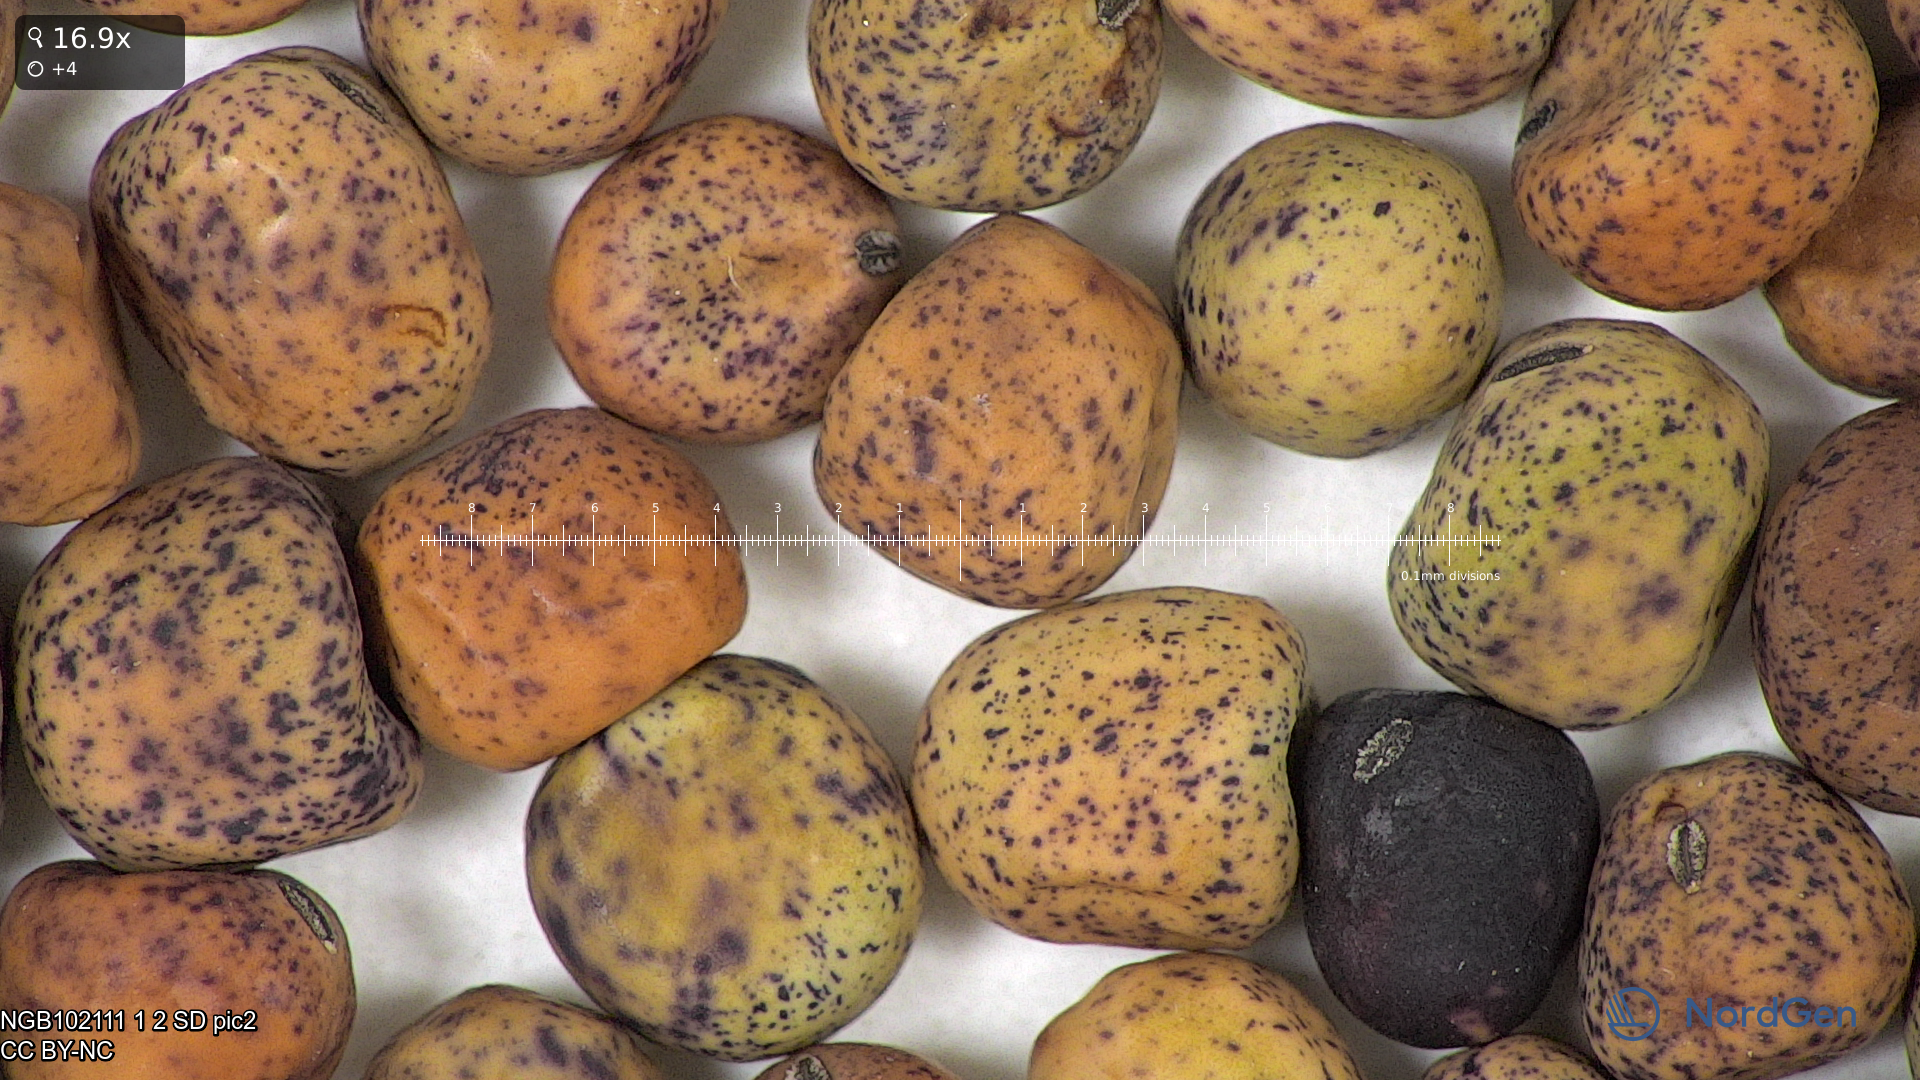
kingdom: Plantae
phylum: Tracheophyta
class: Magnoliopsida
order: Fabales
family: Fabaceae
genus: Lathyrus
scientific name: Lathyrus oleraceus
